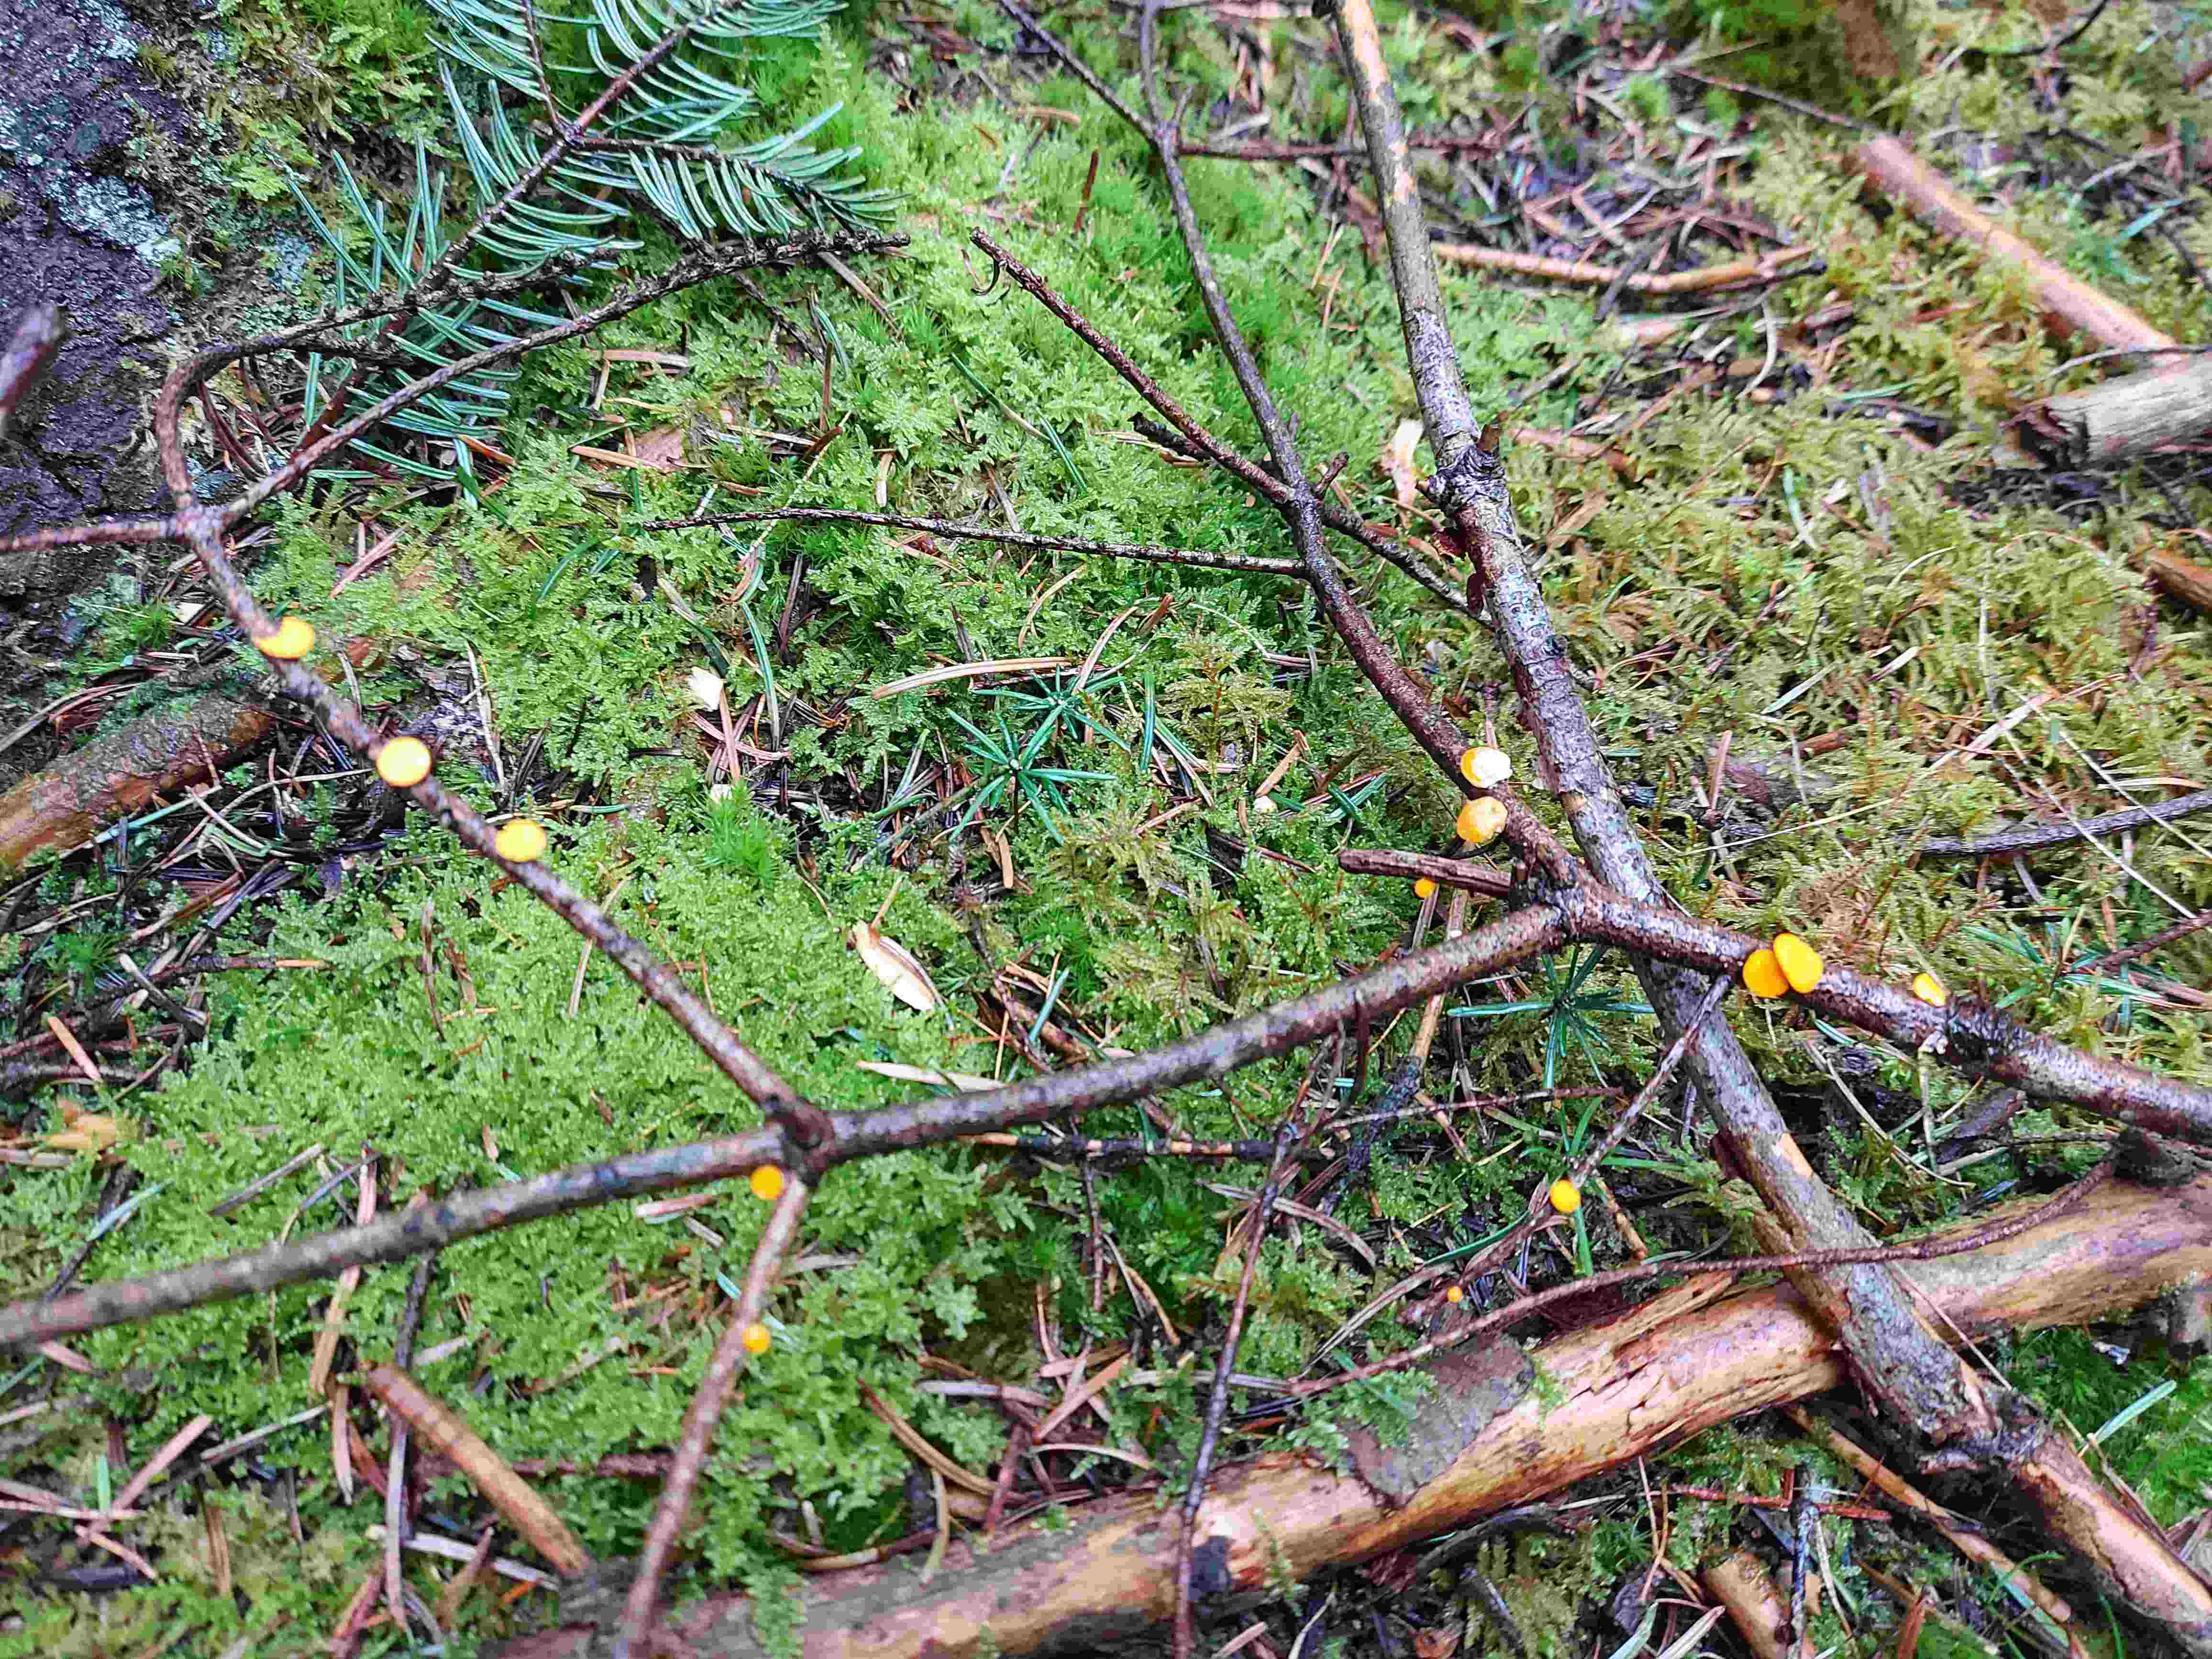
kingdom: Fungi
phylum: Ascomycota
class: Pezizomycetes
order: Pezizales
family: Sarcoscyphaceae
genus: Pithya
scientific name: Pithya vulgaris
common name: stor dukatbæger
